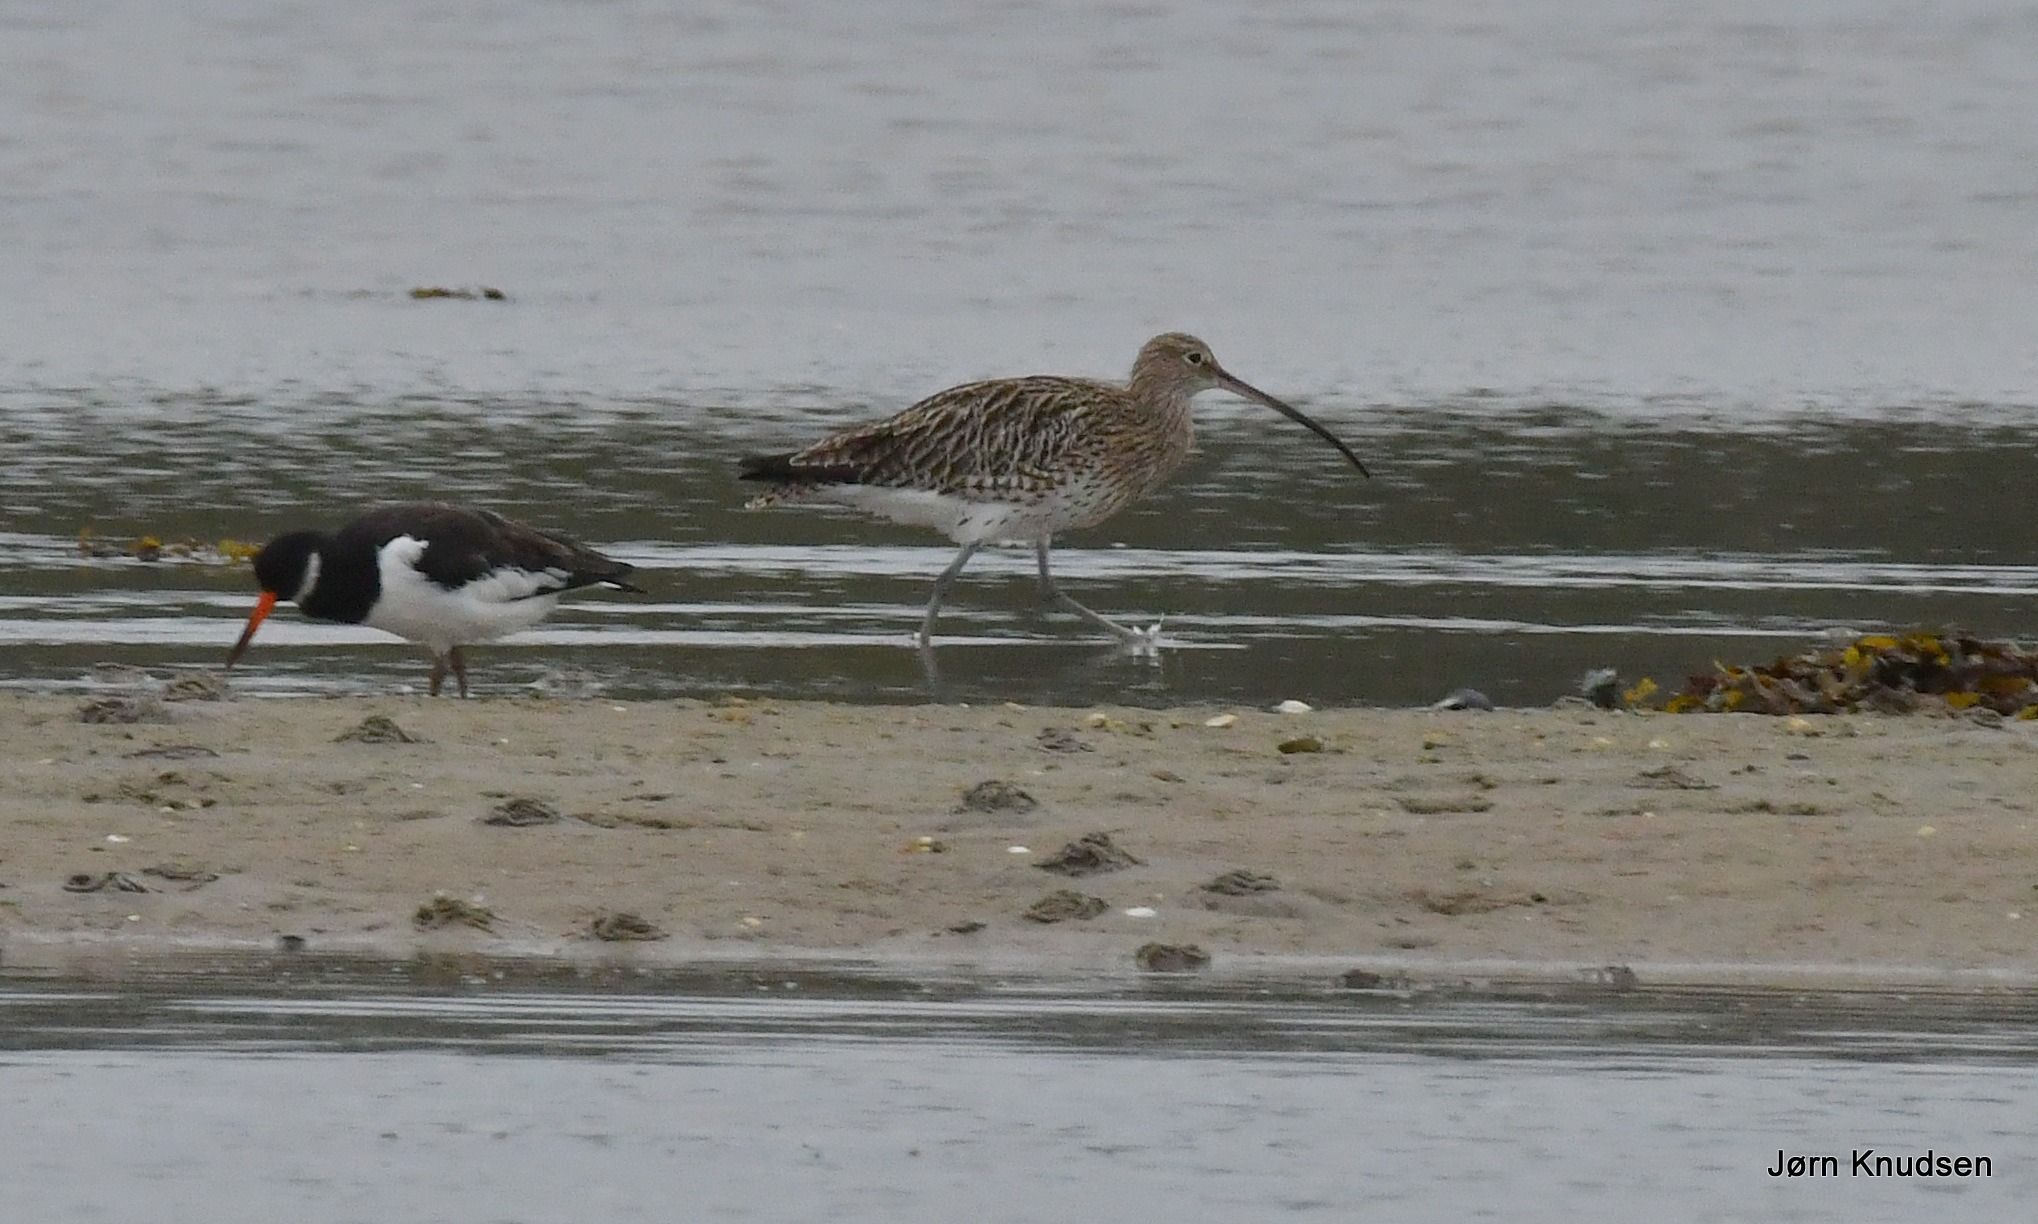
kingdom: Animalia
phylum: Chordata
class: Aves
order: Charadriiformes
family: Scolopacidae
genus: Numenius
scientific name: Numenius arquata
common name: Storspove
